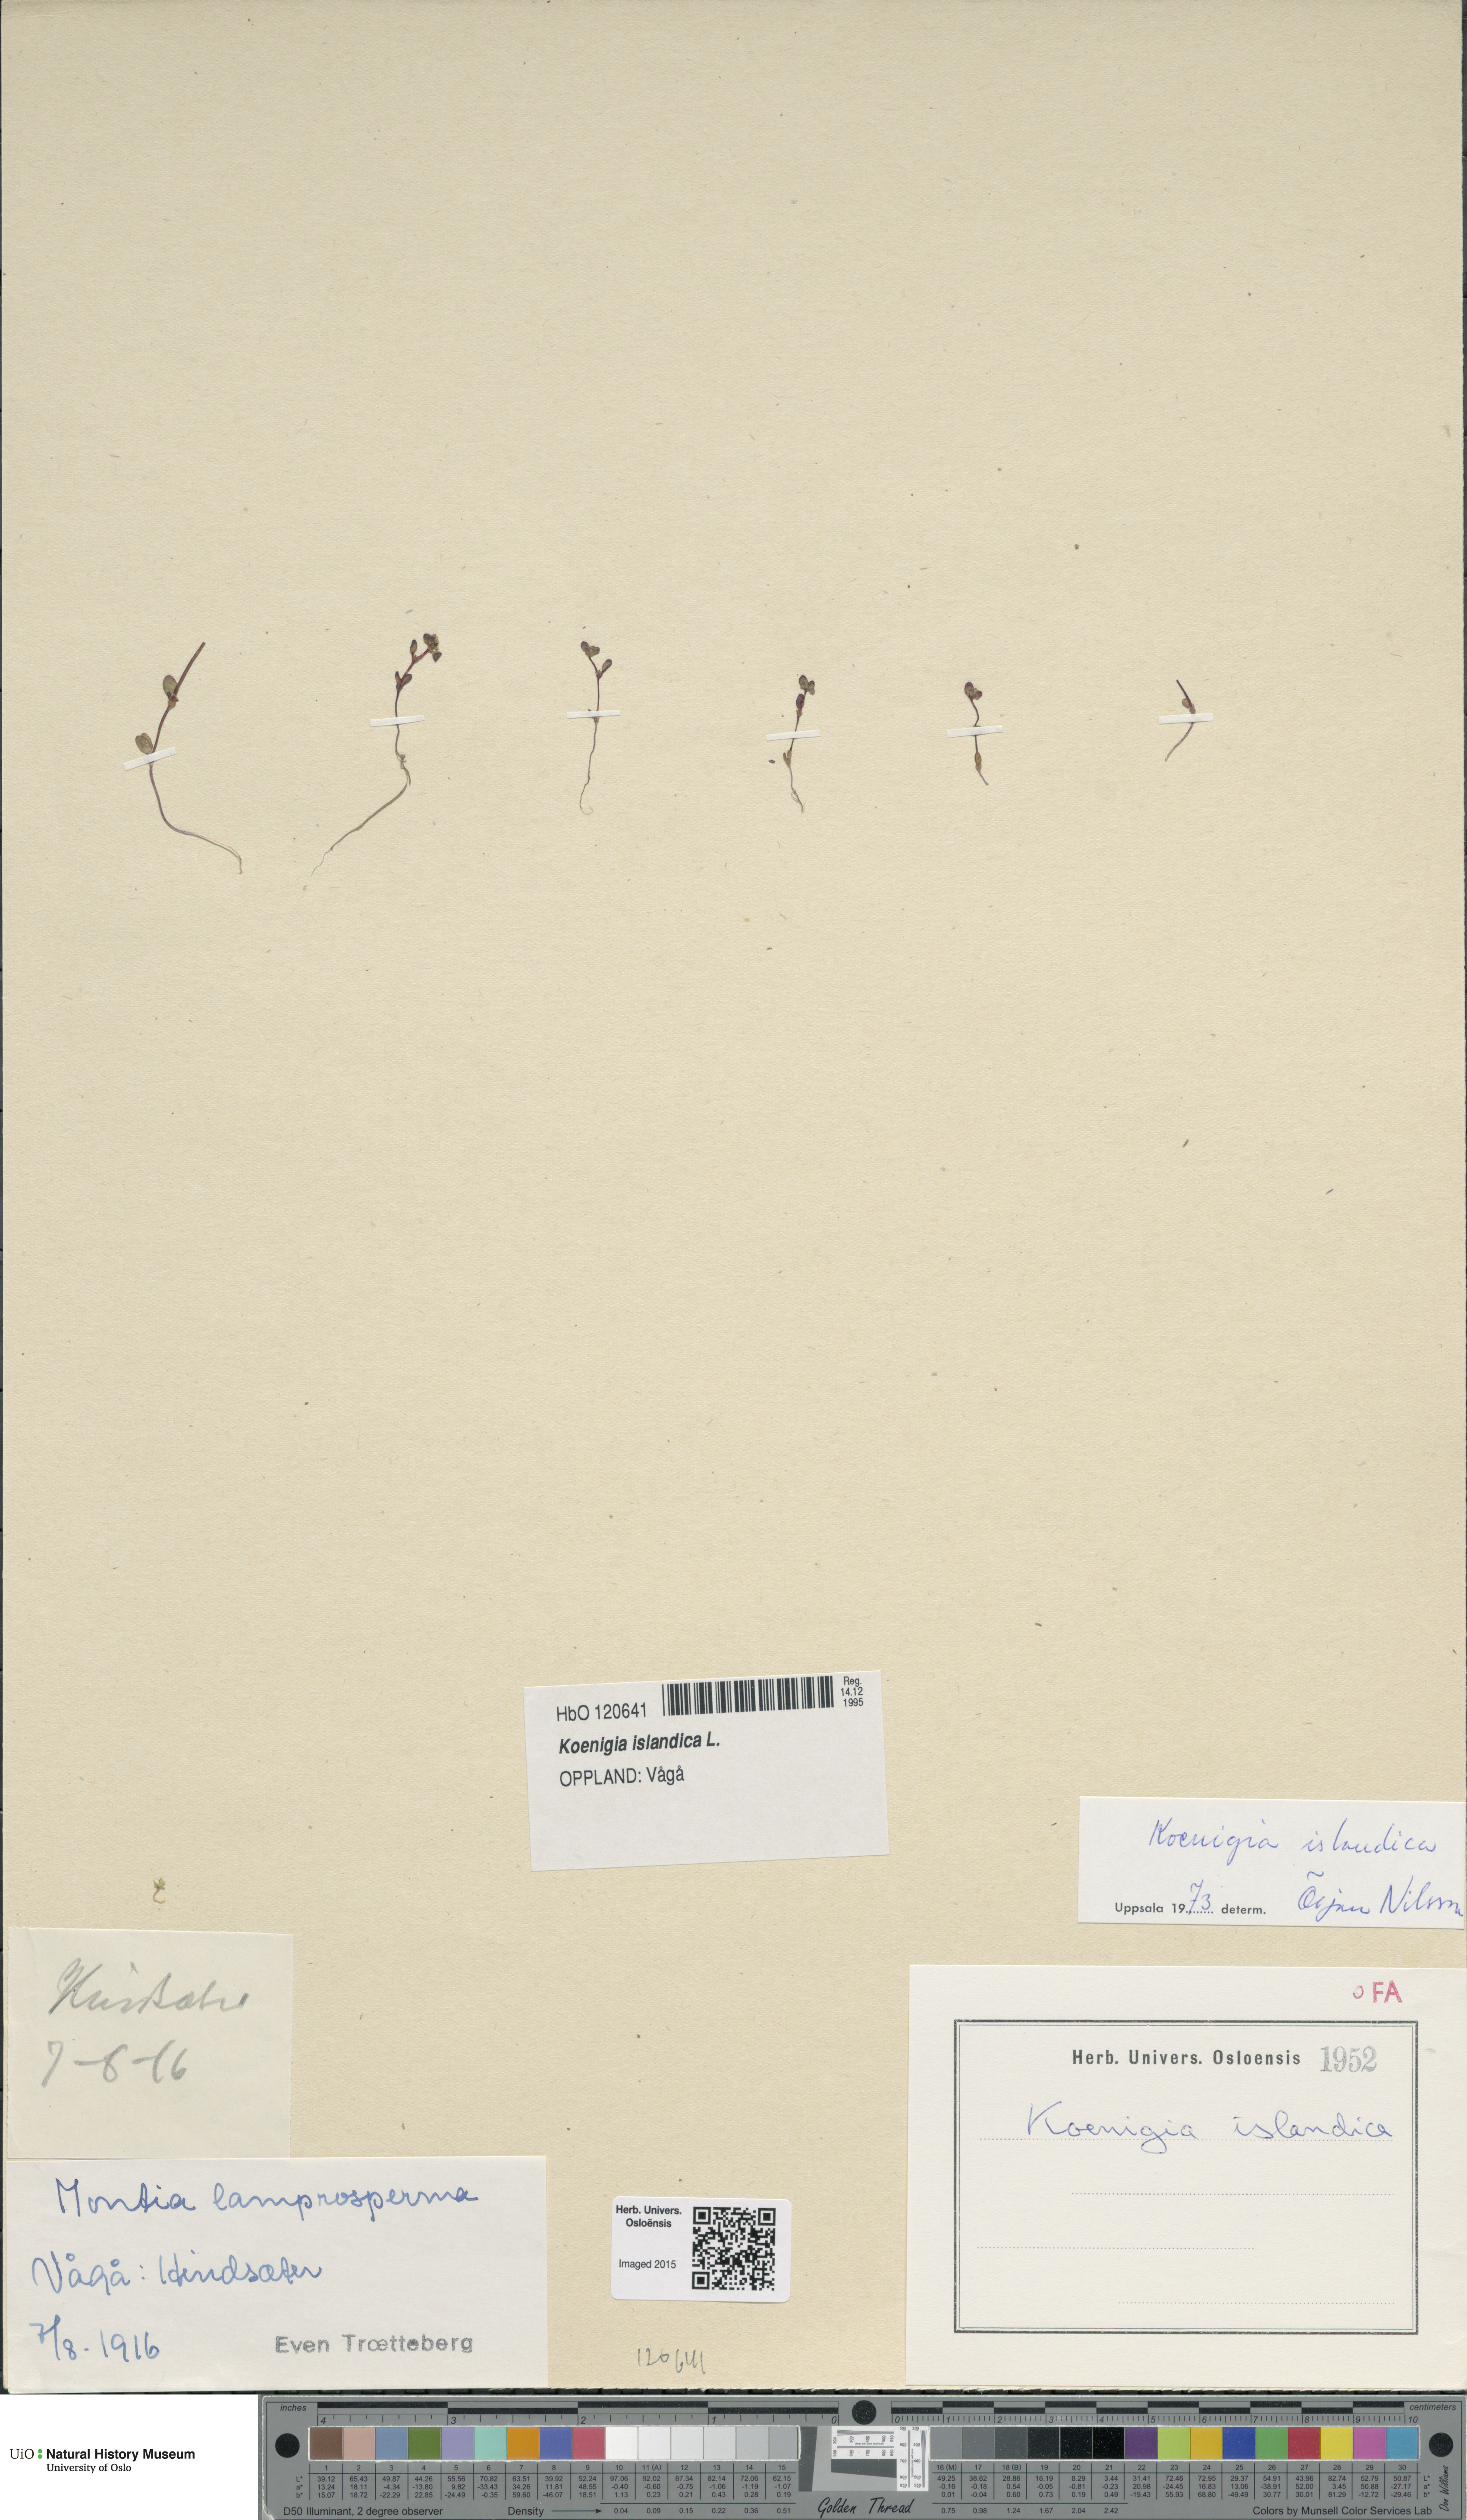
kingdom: Plantae
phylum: Tracheophyta
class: Magnoliopsida
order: Caryophyllales
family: Polygonaceae
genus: Koenigia
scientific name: Koenigia islandica
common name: Iceland-purslane
